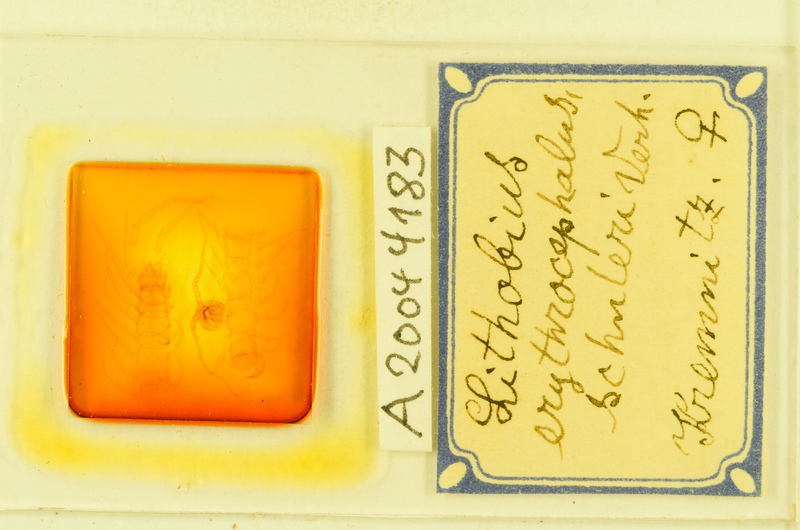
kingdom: Animalia
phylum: Arthropoda
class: Chilopoda
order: Lithobiomorpha
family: Lithobiidae
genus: Lithobius
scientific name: Lithobius erythrocephalus
